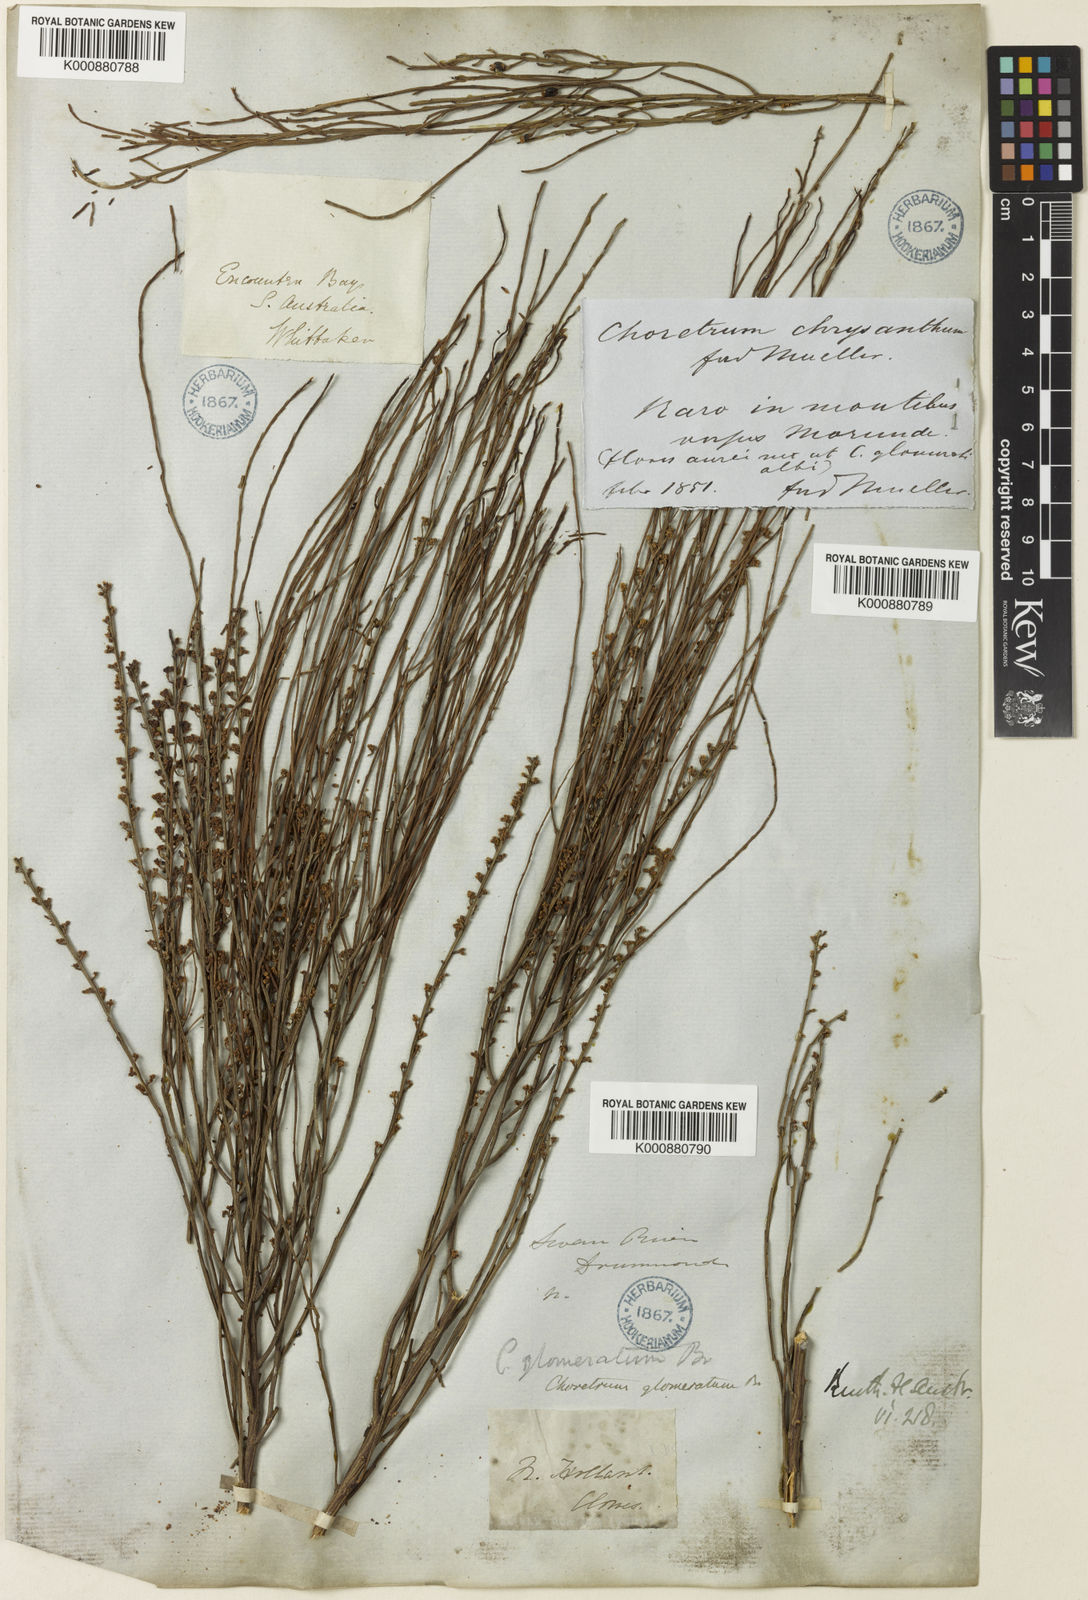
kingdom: Plantae
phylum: Tracheophyta
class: Magnoliopsida
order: Santalales
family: Amphorogynaceae
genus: Choretrum
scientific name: Choretrum glomeratum
